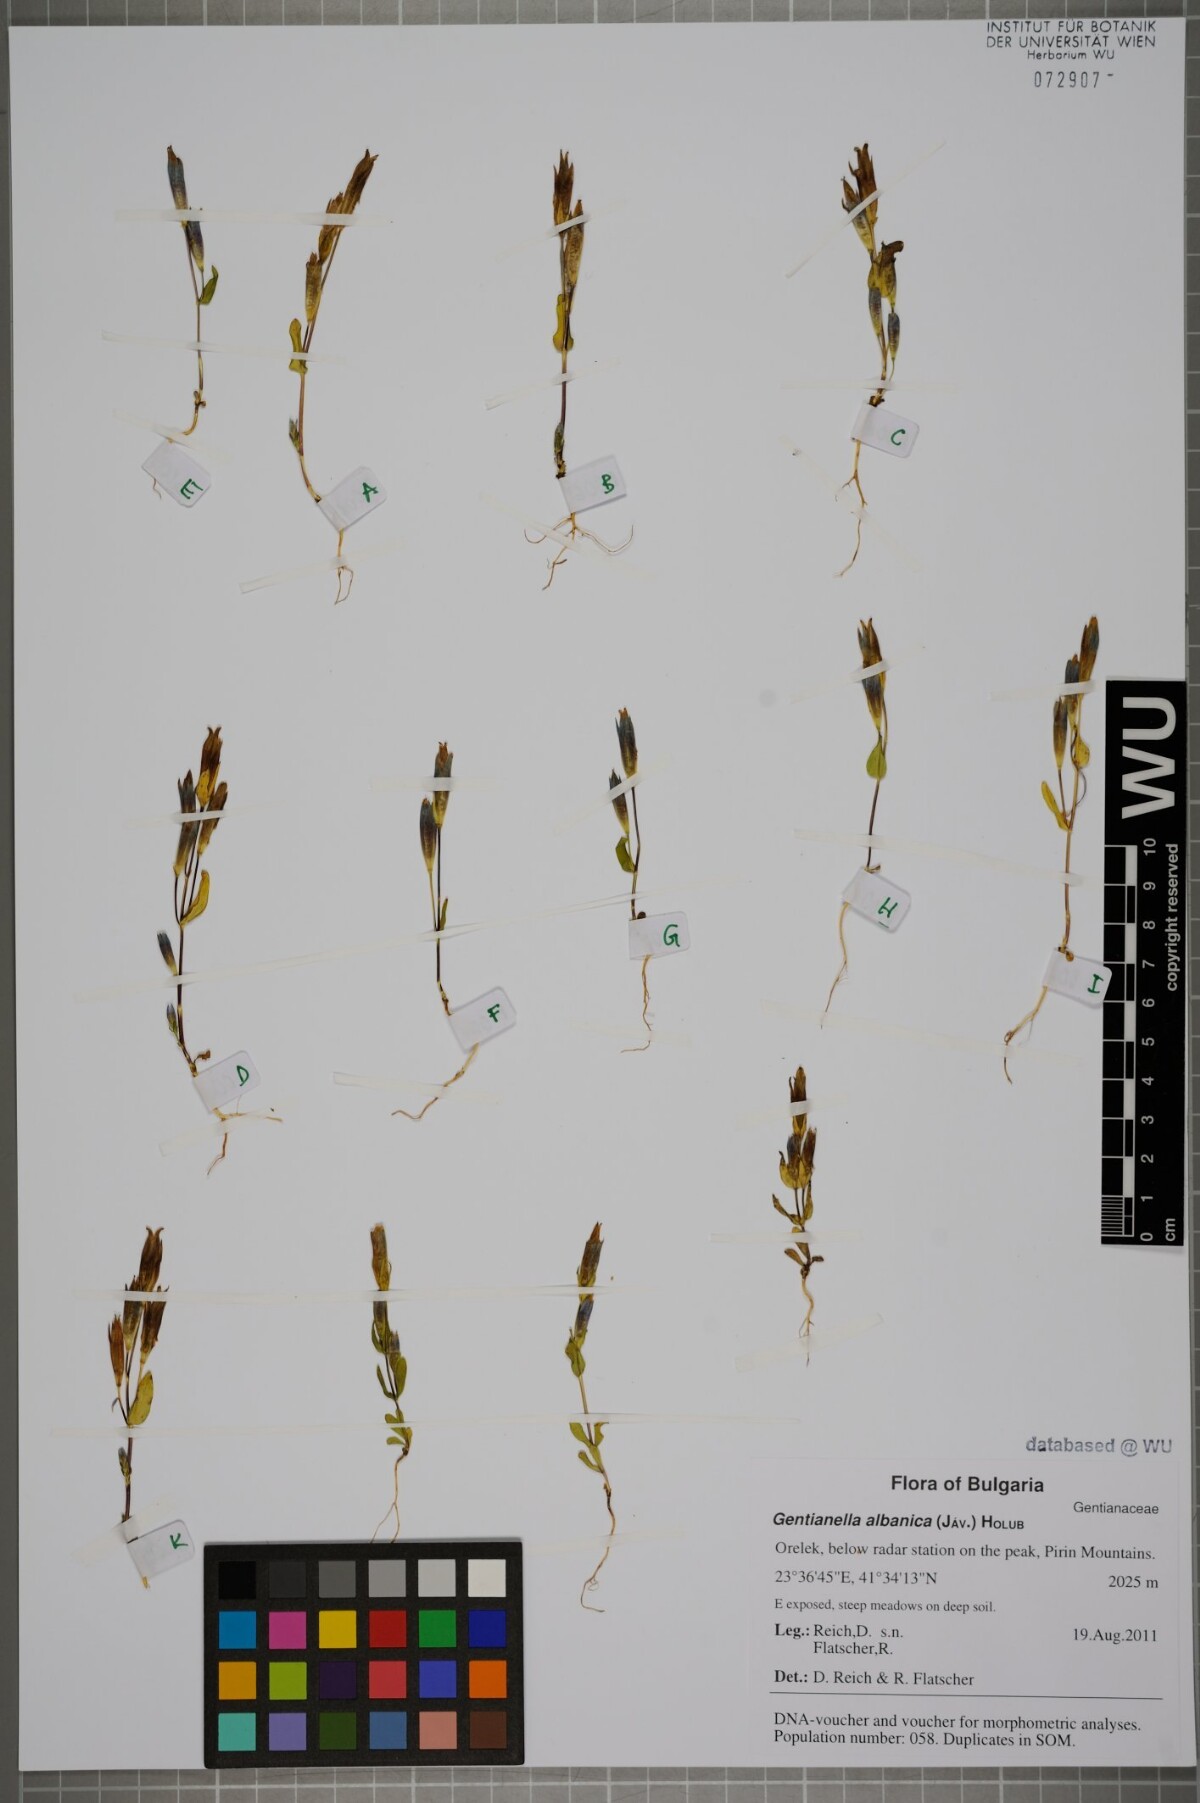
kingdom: Plantae
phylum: Tracheophyta
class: Magnoliopsida
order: Gentianales
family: Gentianaceae
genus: Gentianella
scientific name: Gentianella albanica
